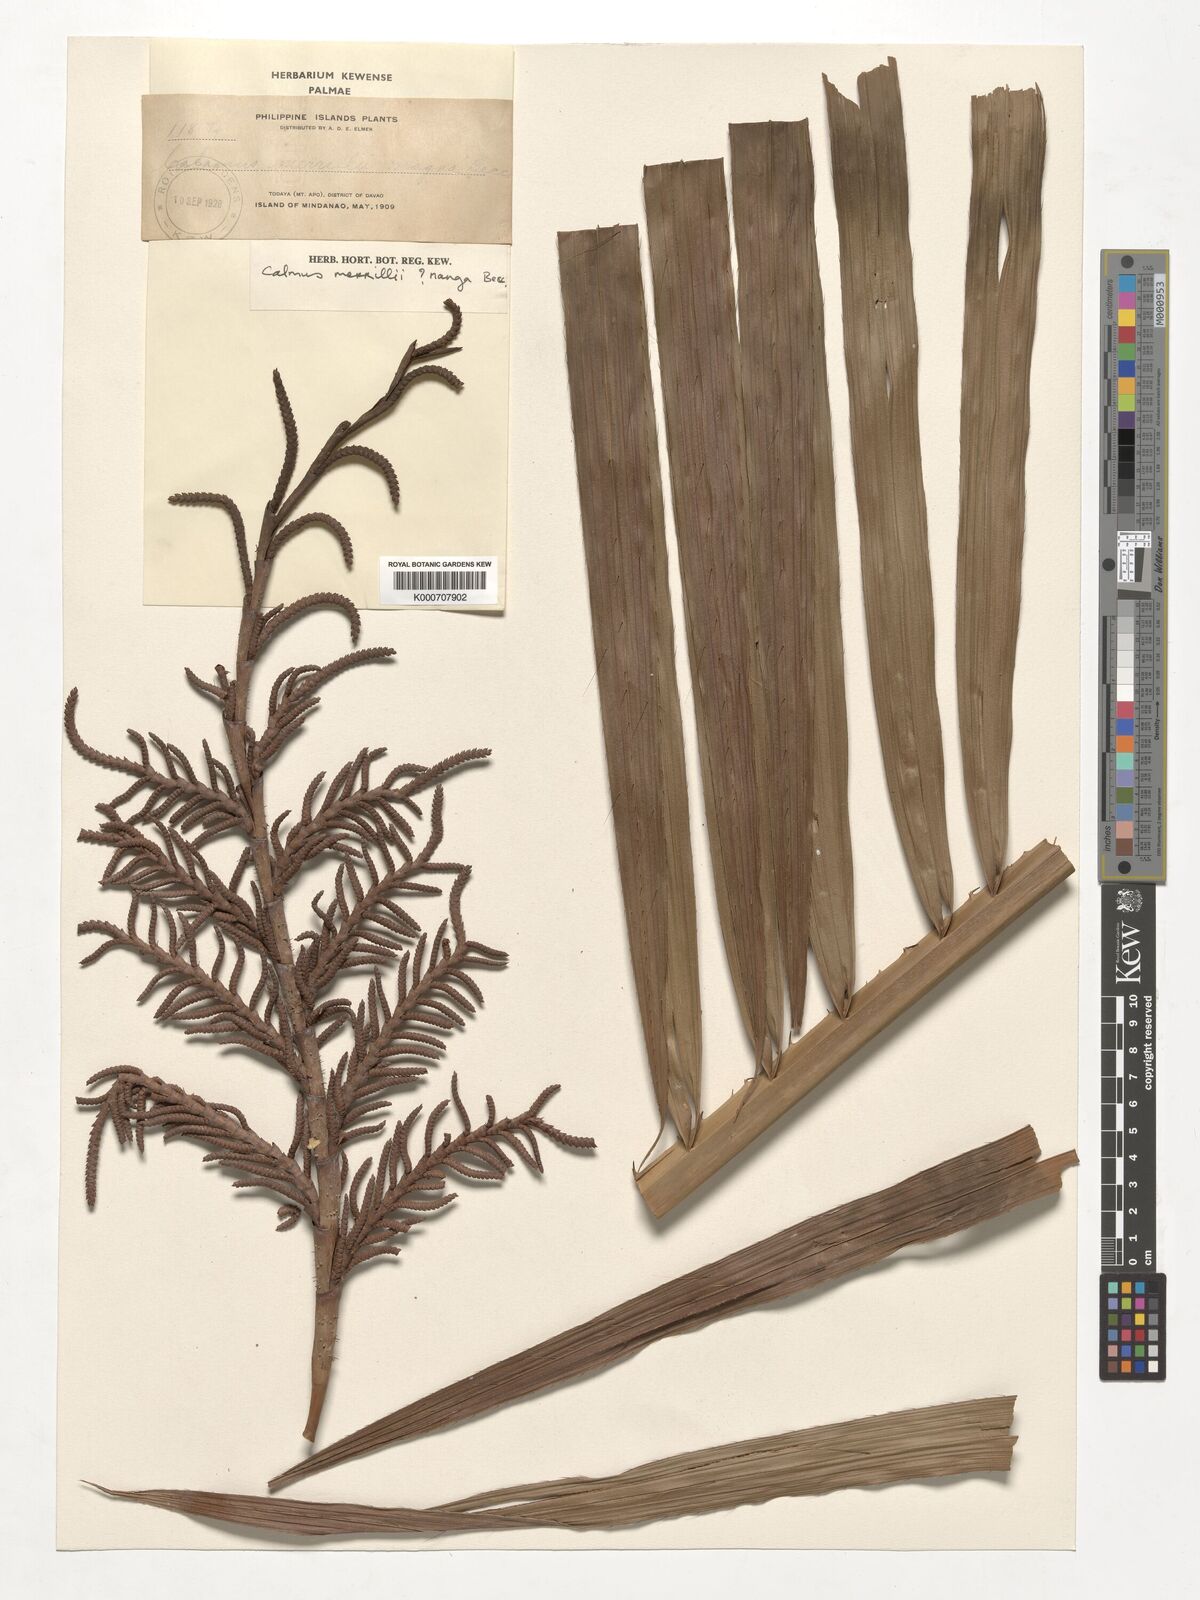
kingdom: Plantae
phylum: Tracheophyta
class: Liliopsida
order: Arecales
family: Arecaceae
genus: Calamus
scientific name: Calamus zollingeri
